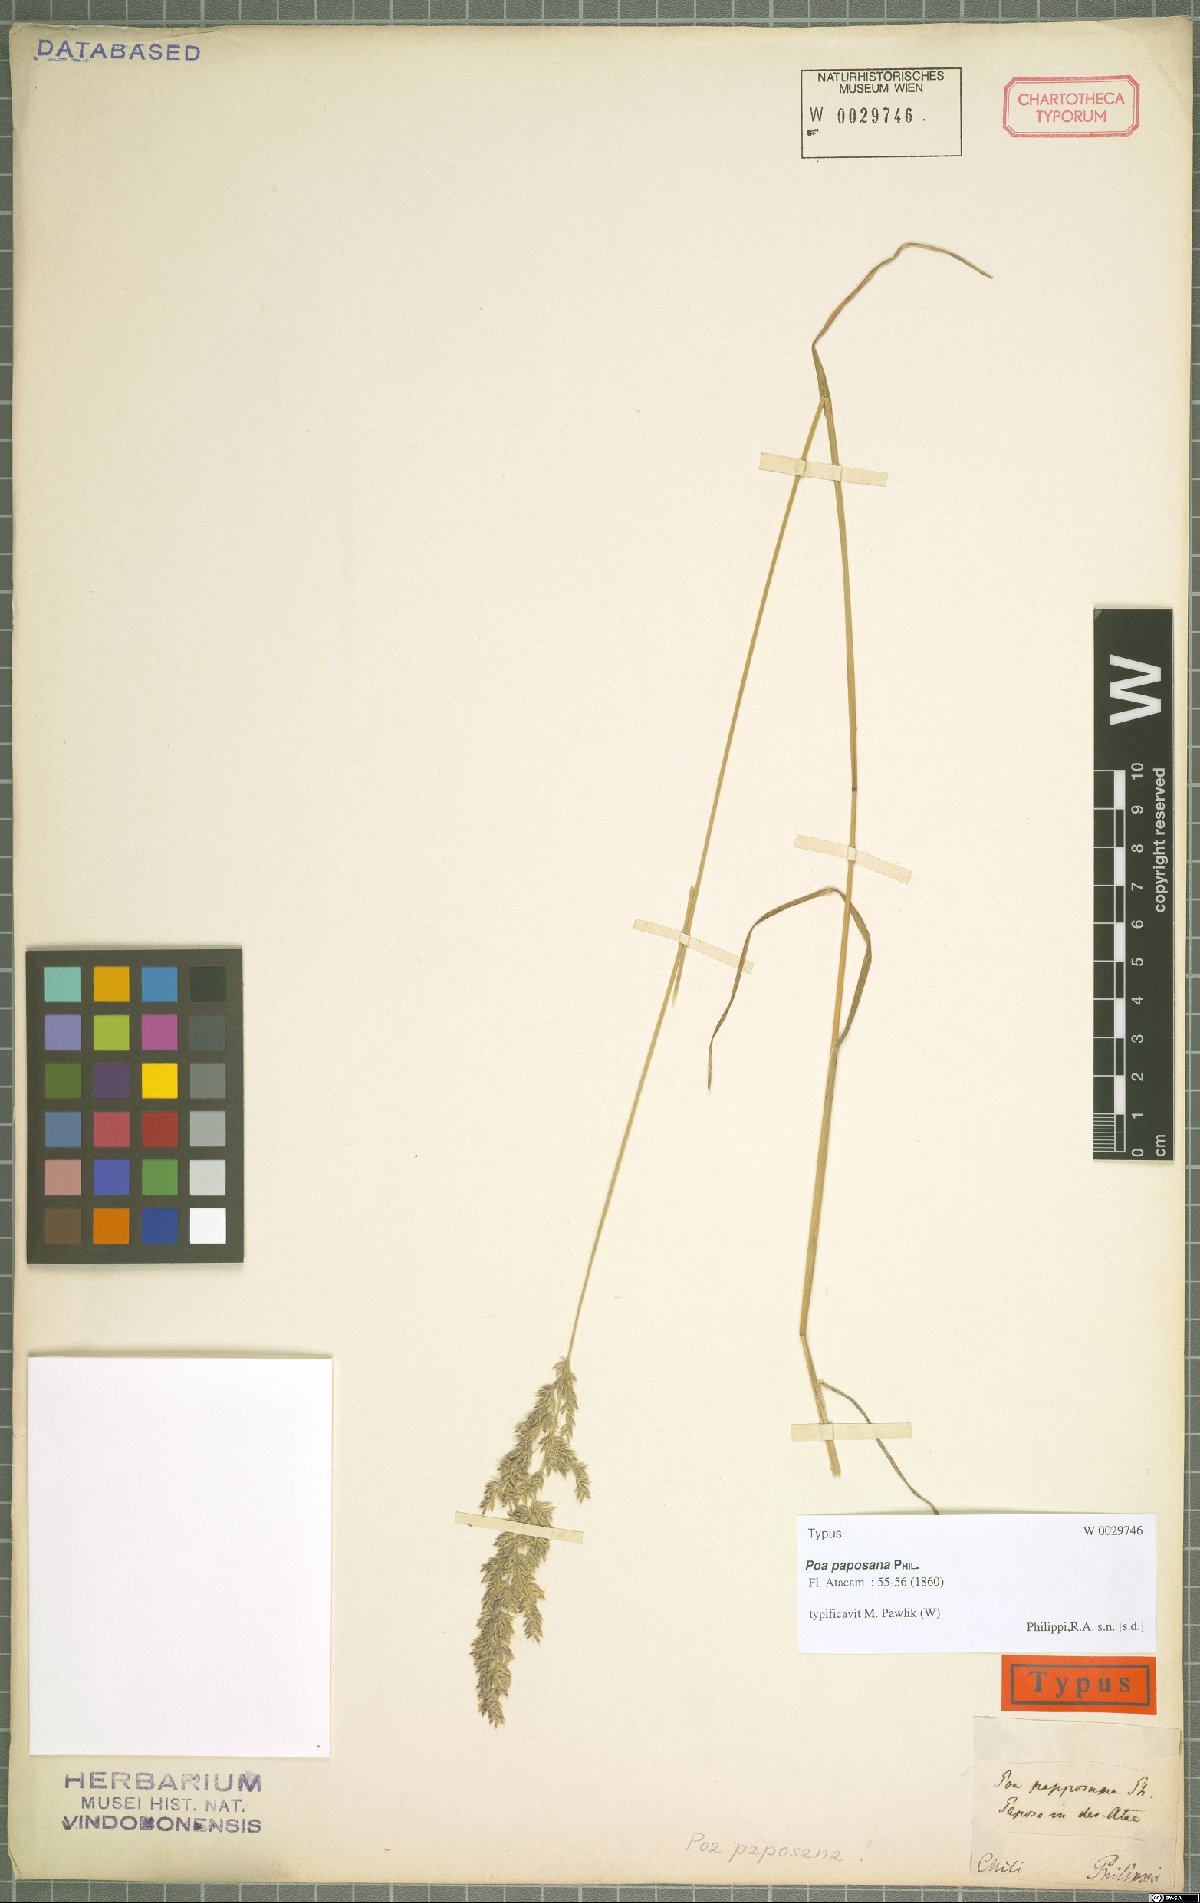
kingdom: Plantae
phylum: Tracheophyta
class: Liliopsida
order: Poales
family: Poaceae
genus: Poa
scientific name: Poa paposana
